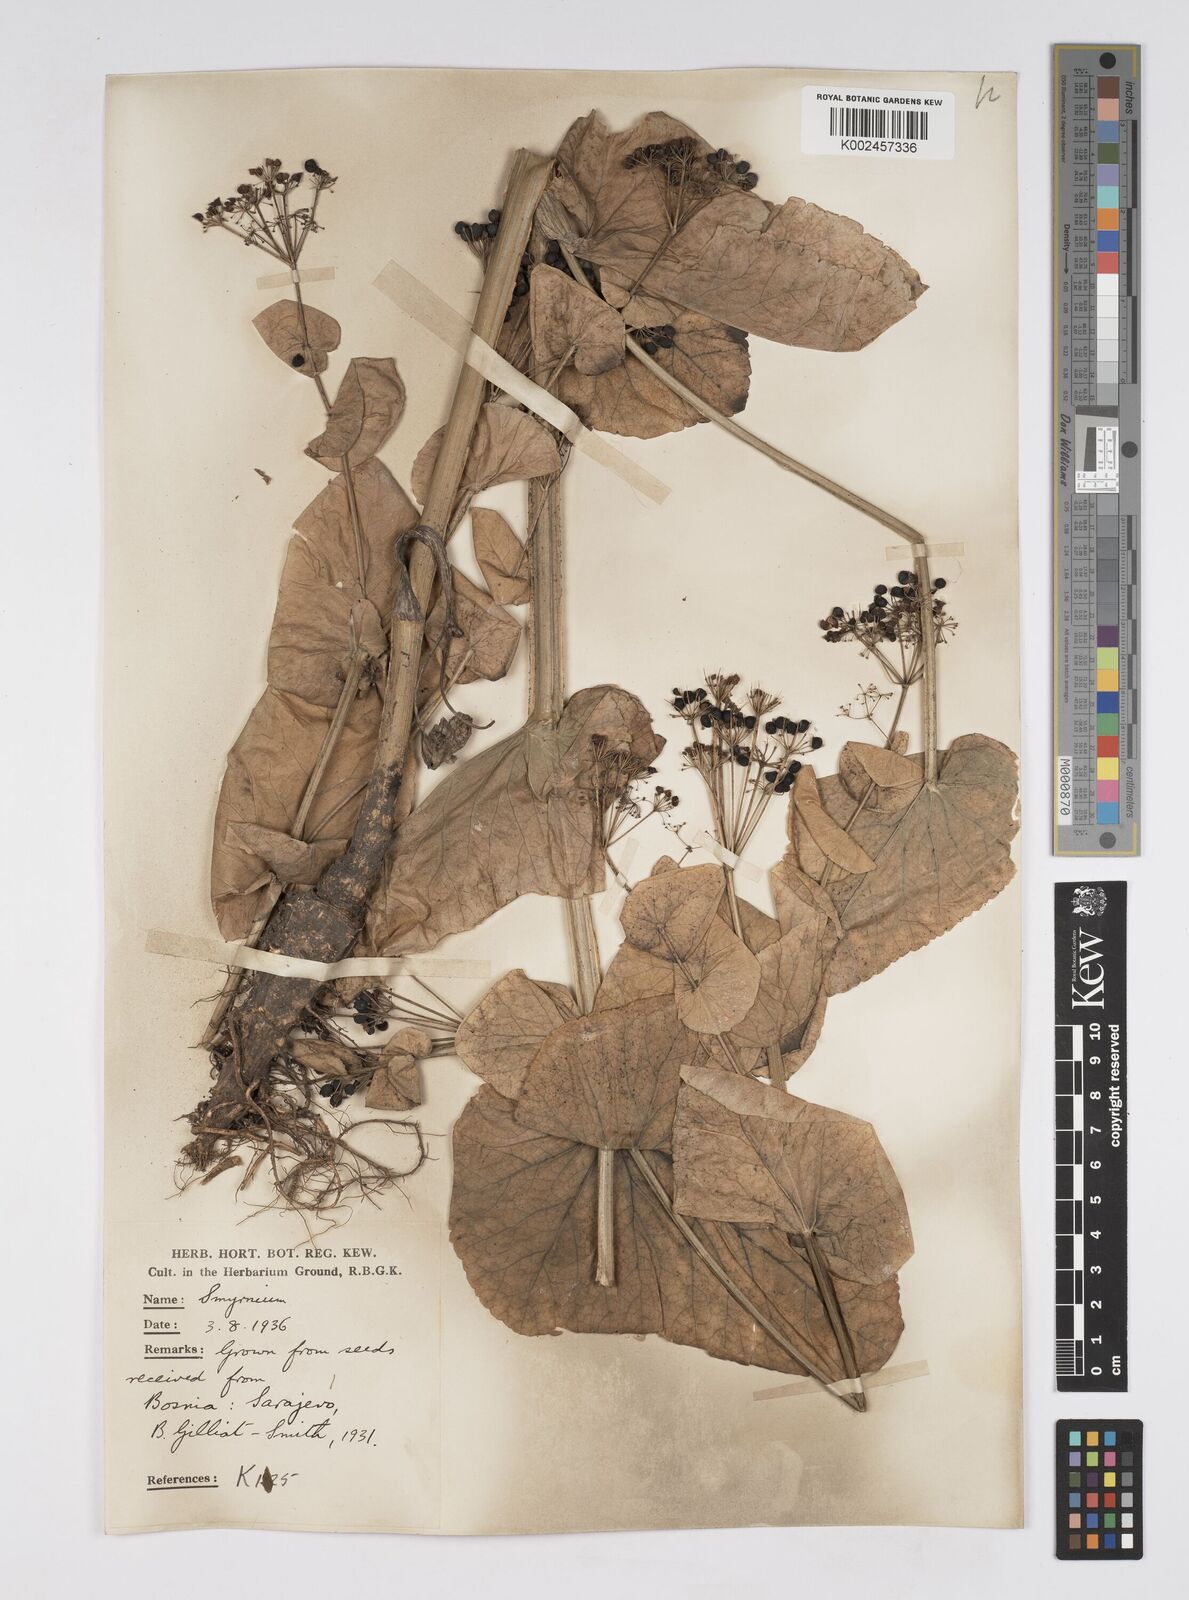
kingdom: Plantae
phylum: Tracheophyta
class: Magnoliopsida
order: Apiales
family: Apiaceae
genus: Smyrnium
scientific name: Smyrnium perfoliatum
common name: Perfoliate alexanders
